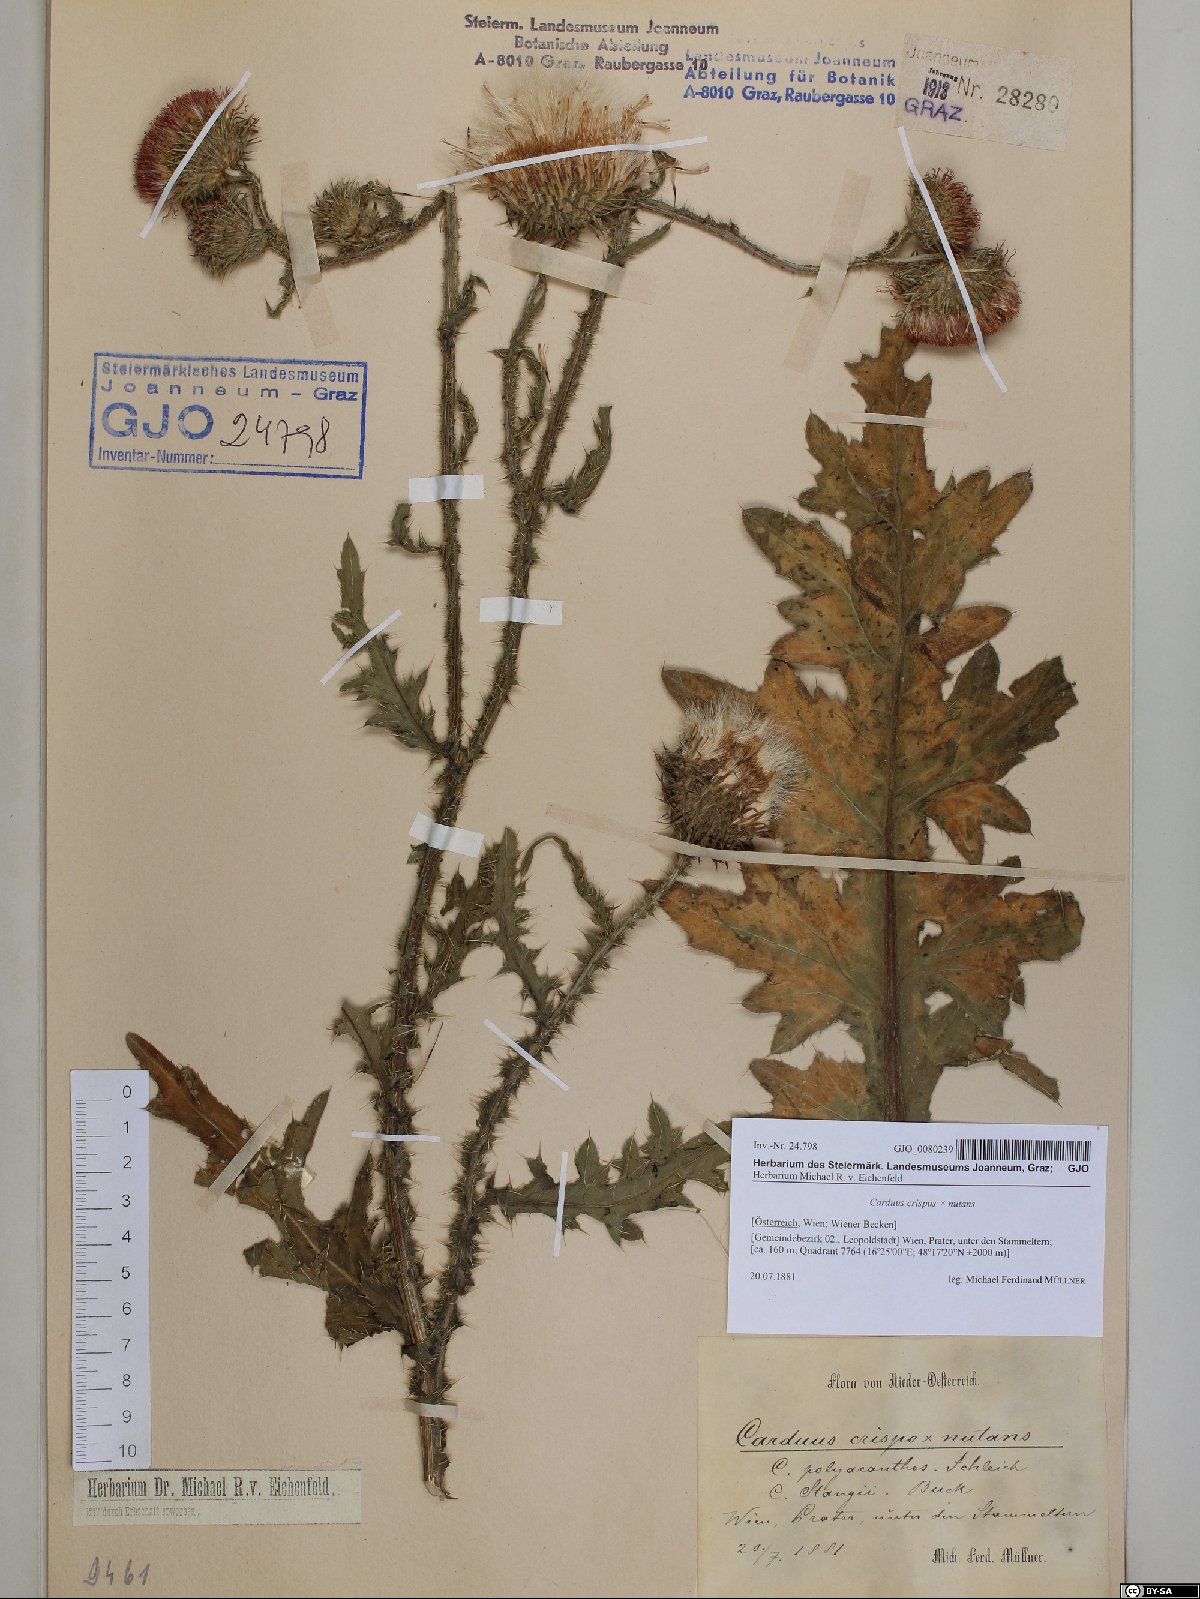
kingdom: Plantae
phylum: Tracheophyta
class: Magnoliopsida
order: Asterales
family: Asteraceae
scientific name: Asteraceae
